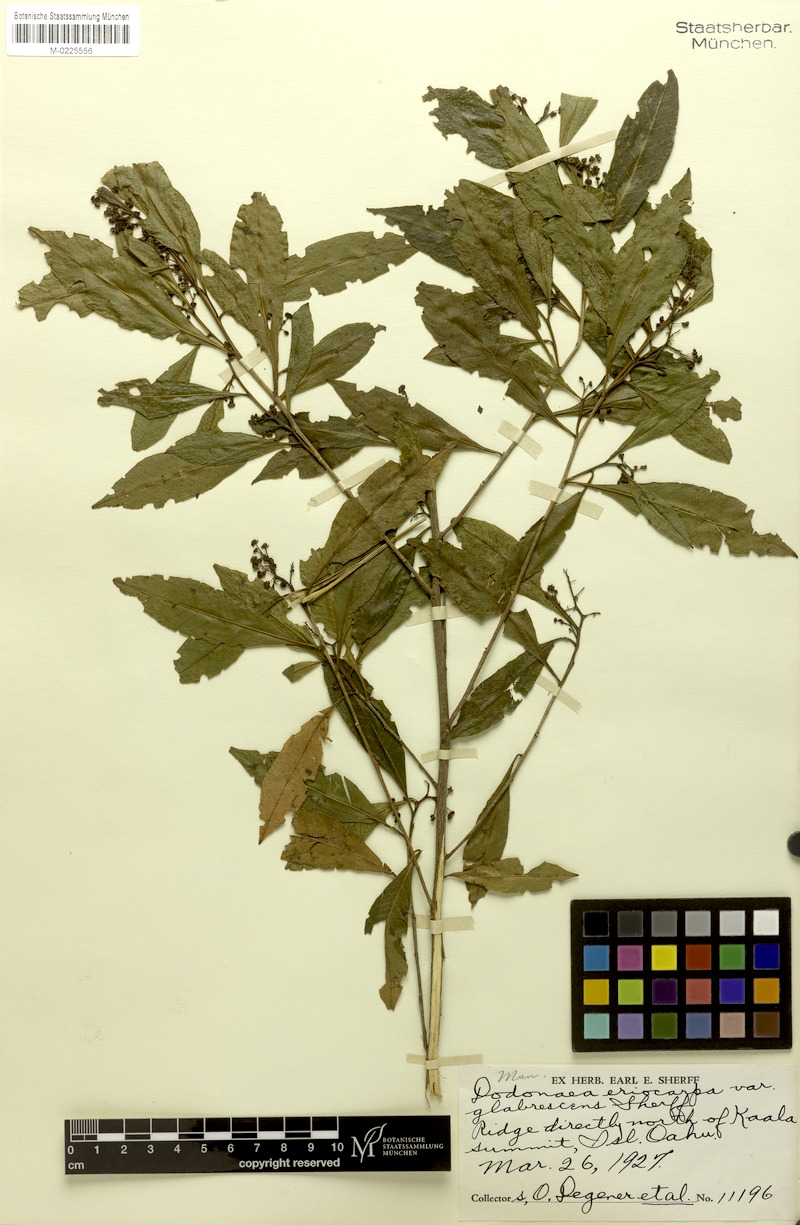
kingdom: Plantae
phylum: Tracheophyta
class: Magnoliopsida
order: Sapindales
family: Sapindaceae
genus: Dodonaea
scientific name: Dodonaea viscosa
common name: Hopbush
